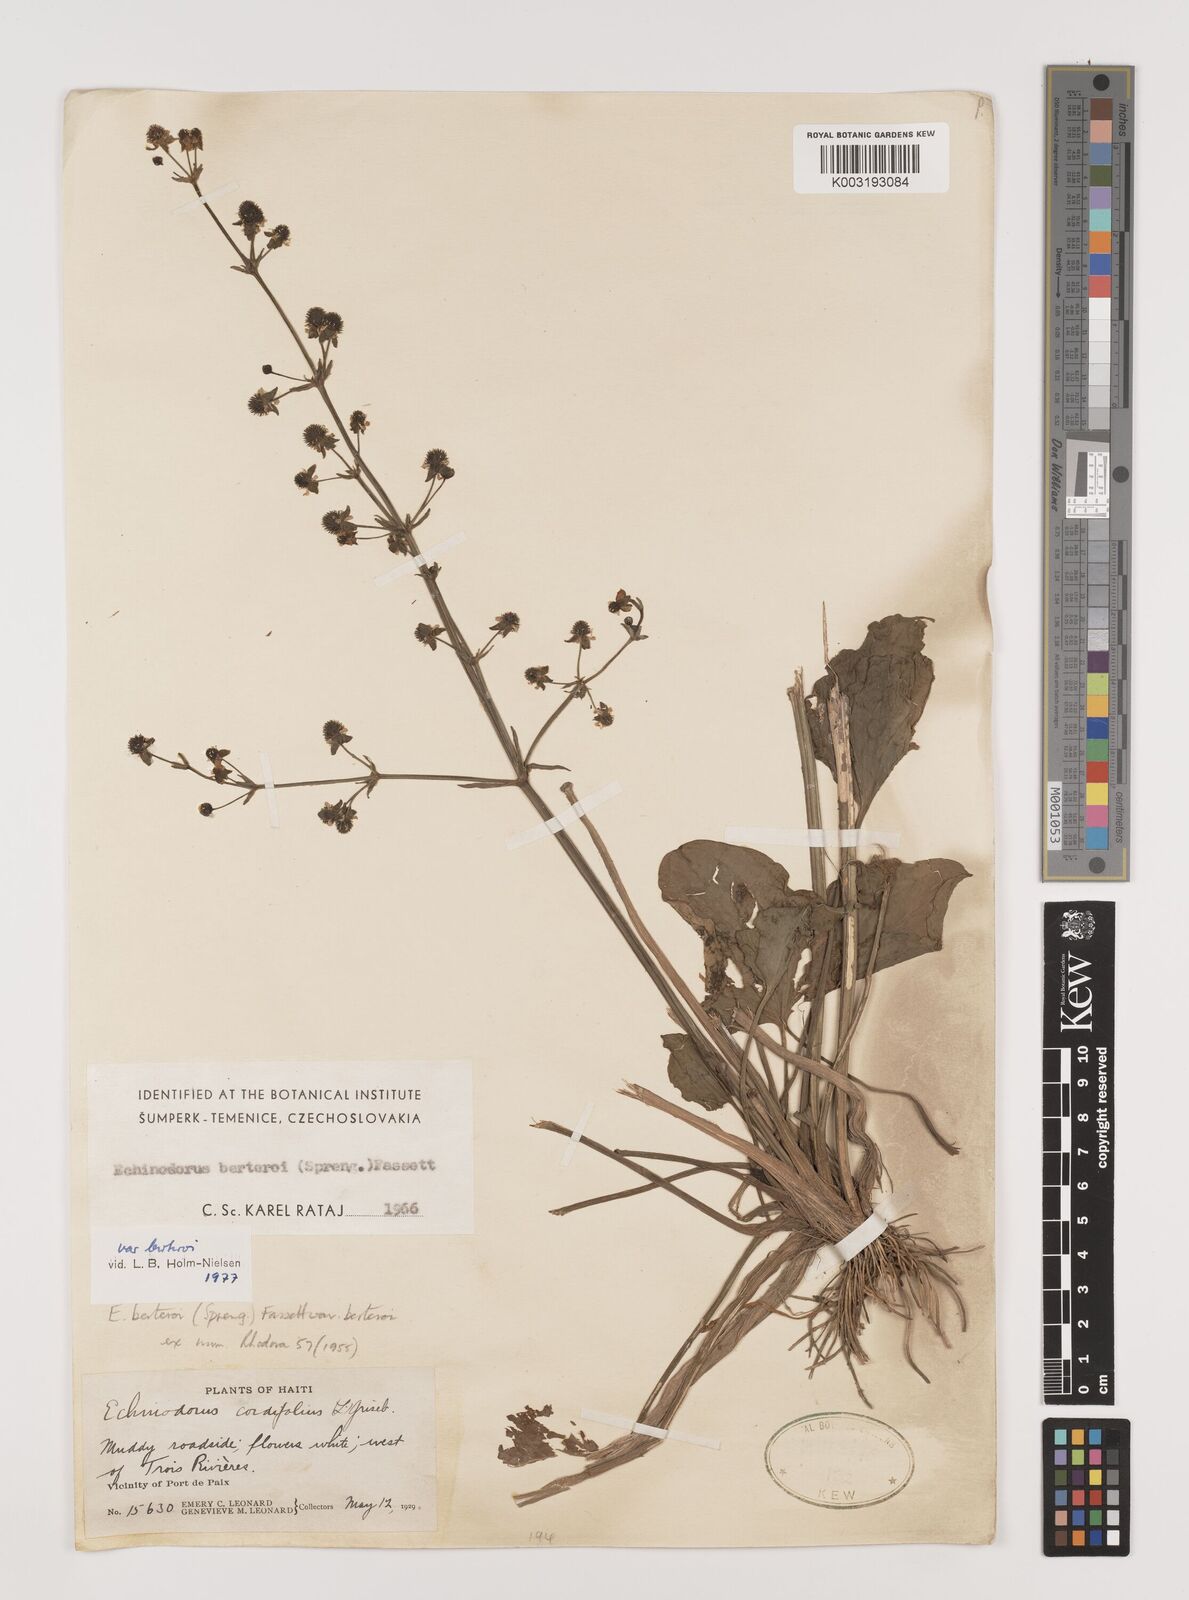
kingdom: Plantae
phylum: Tracheophyta
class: Liliopsida
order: Alismatales
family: Alismataceae
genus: Echinodorus
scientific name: Echinodorus berteroi
